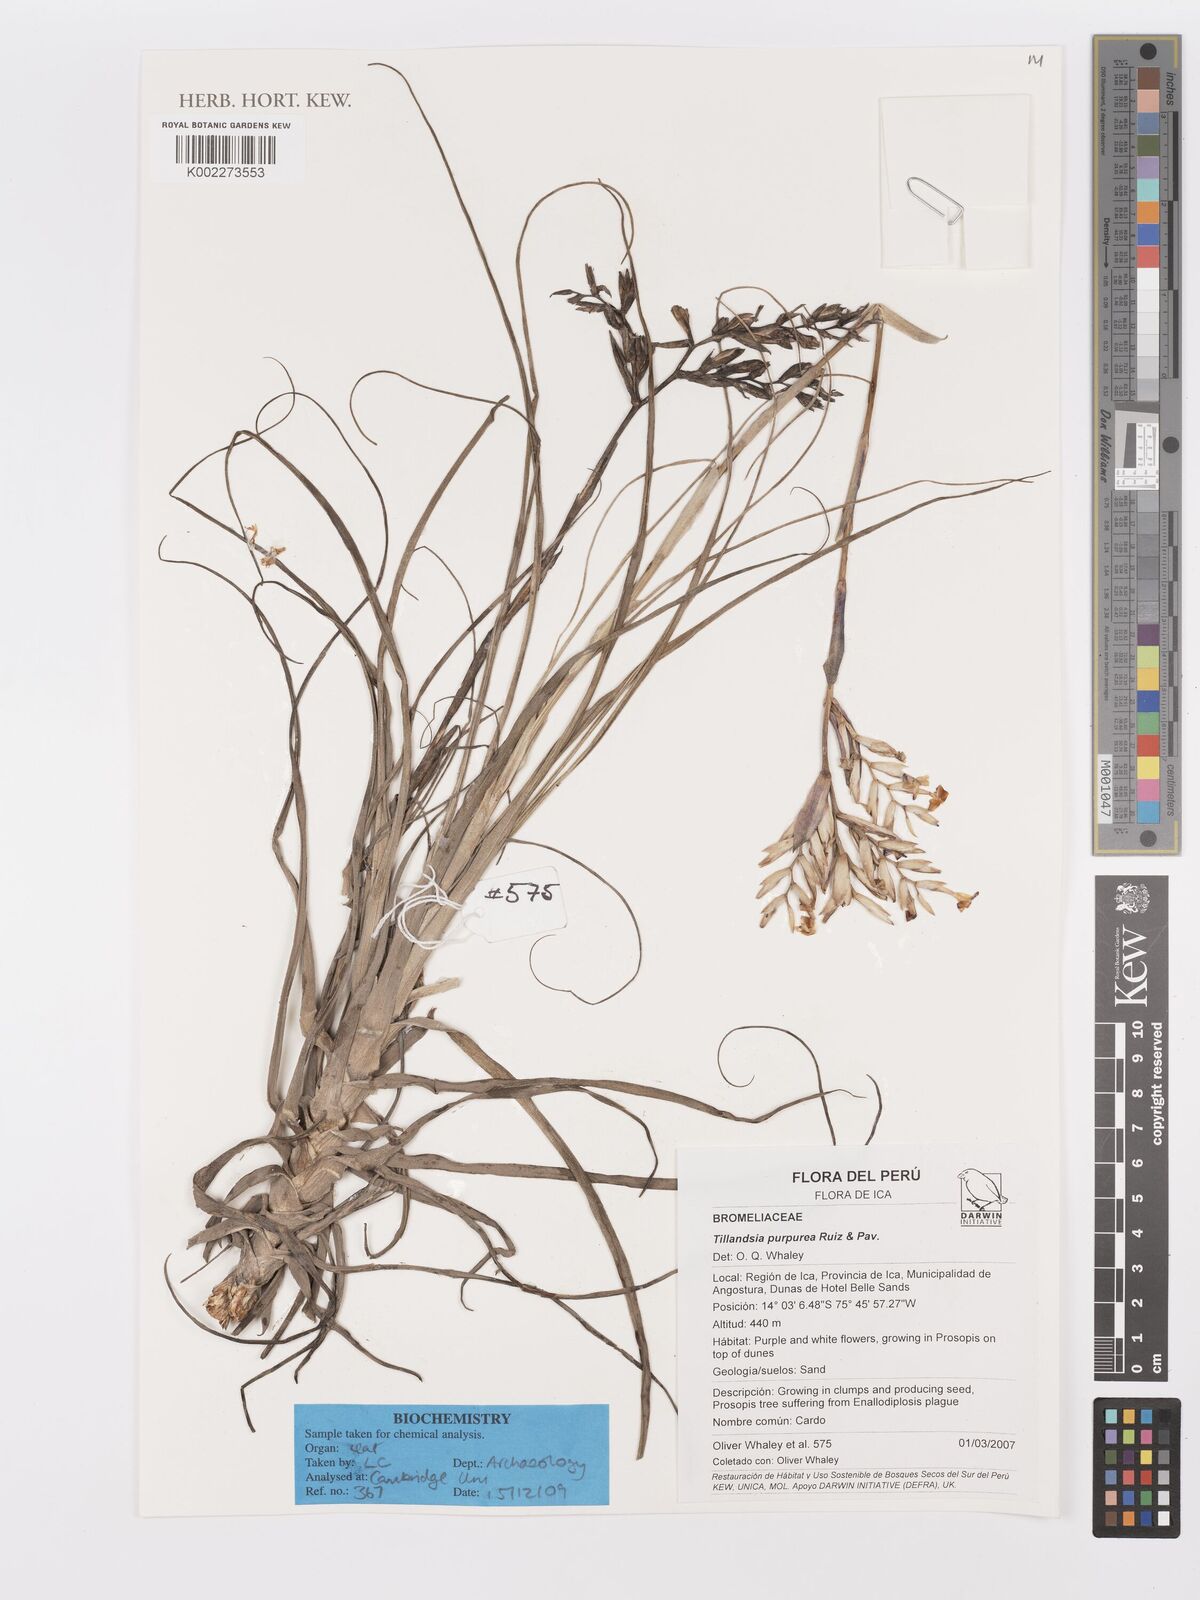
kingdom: Plantae
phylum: Tracheophyta
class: Liliopsida
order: Poales
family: Bromeliaceae
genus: Tillandsia
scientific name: Tillandsia purpurea
